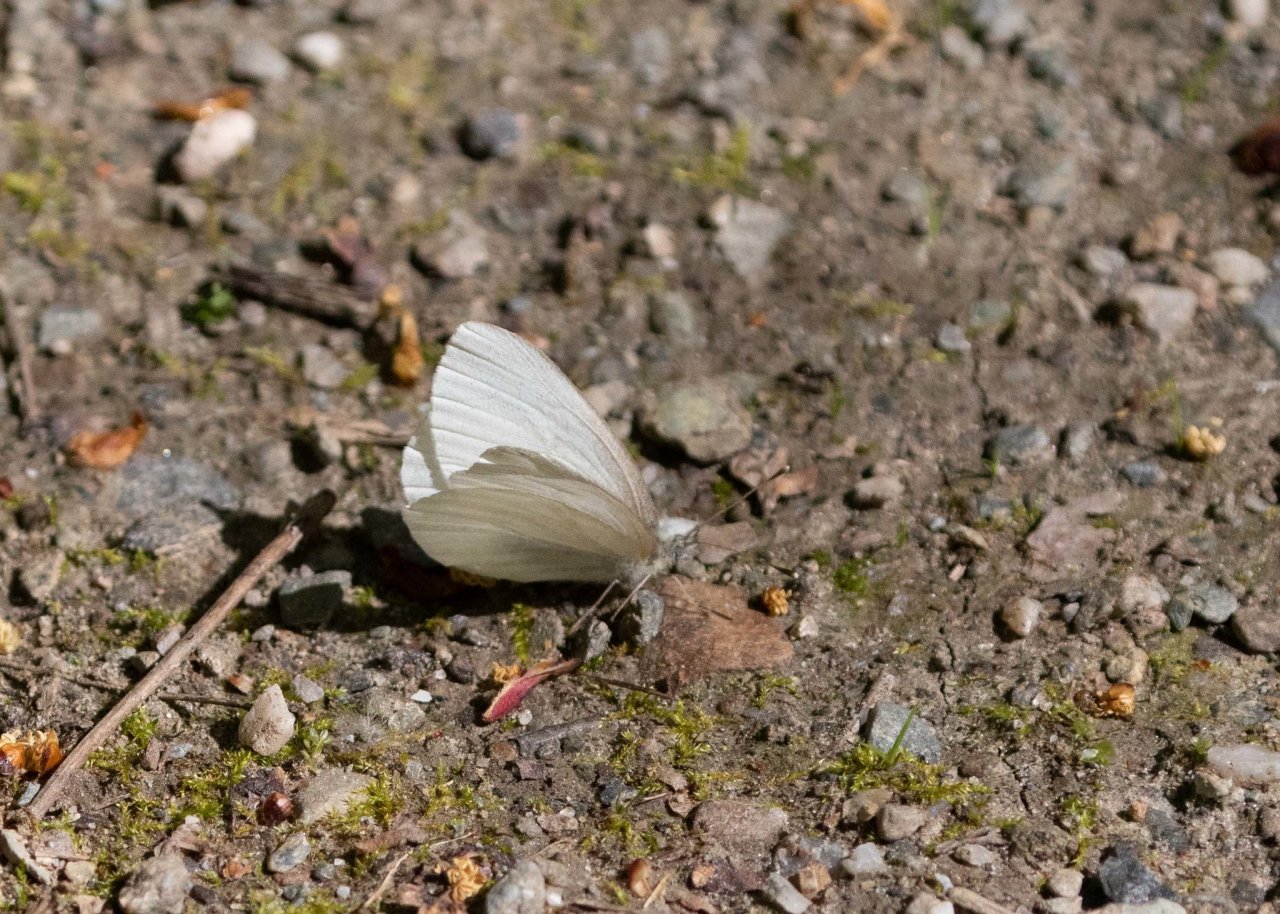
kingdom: Animalia
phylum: Arthropoda
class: Insecta
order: Lepidoptera
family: Pieridae
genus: Pieris
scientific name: Pieris virginiensis
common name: West Virginia White
